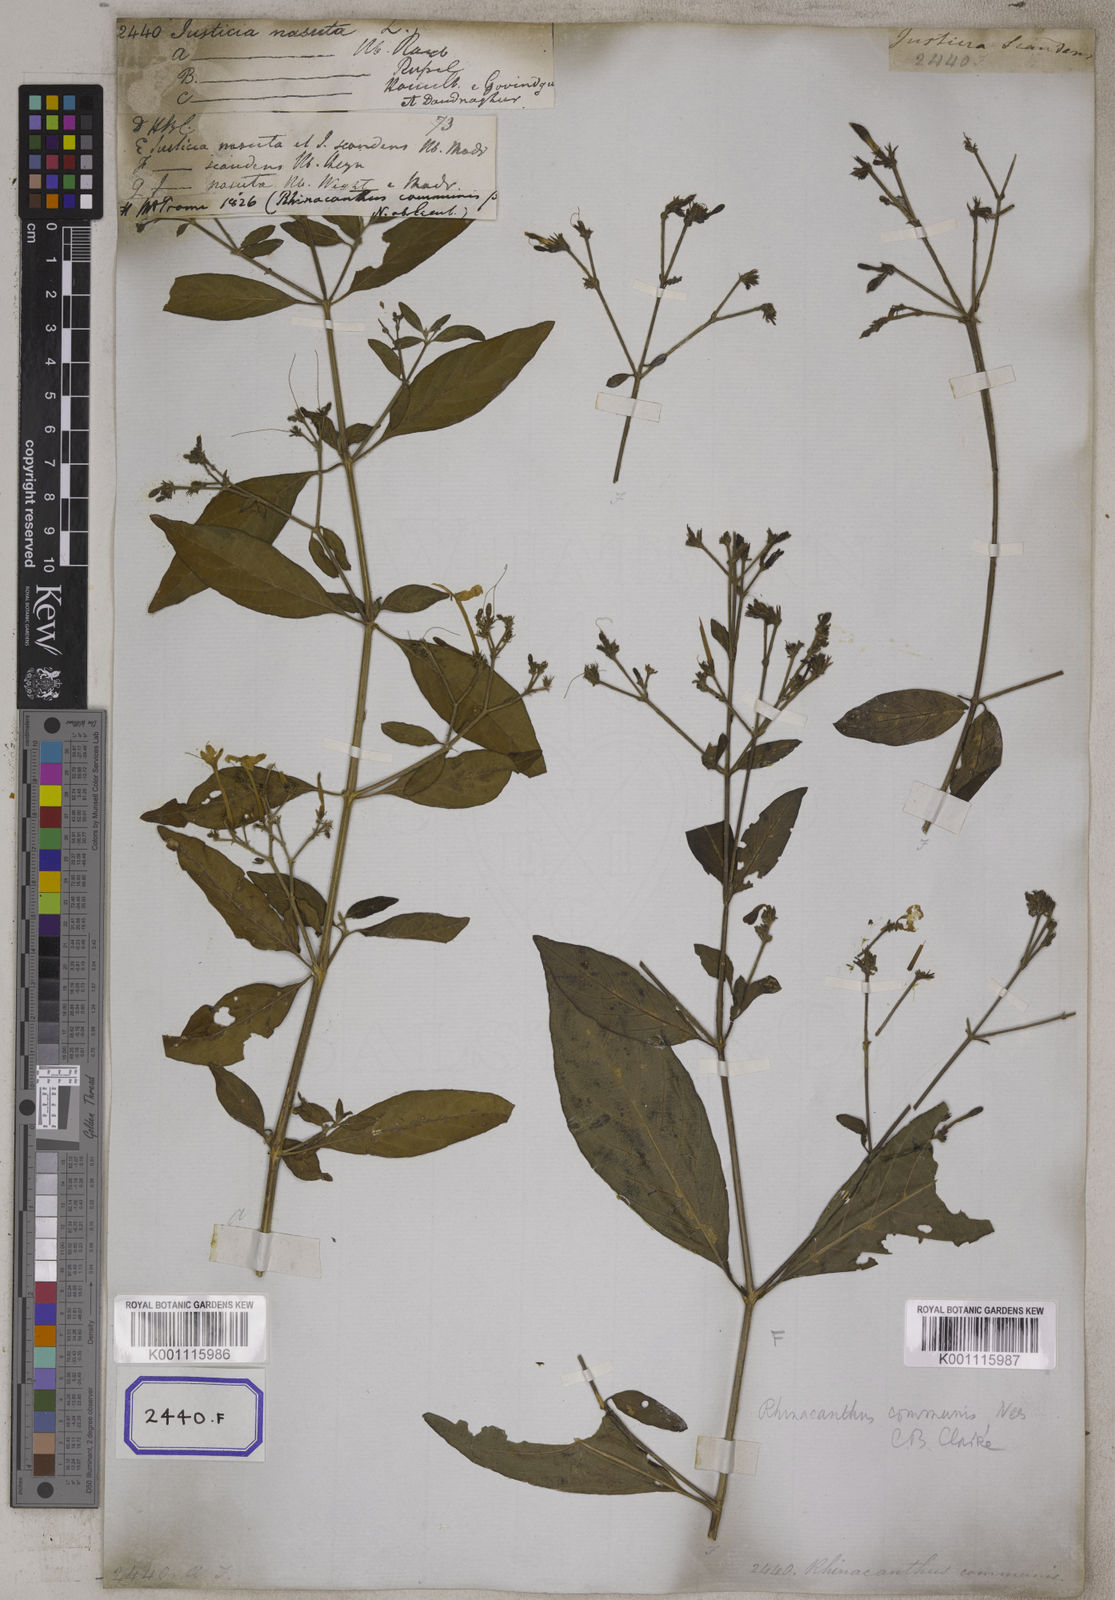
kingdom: Plantae
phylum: Tracheophyta
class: Magnoliopsida
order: Lamiales
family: Acanthaceae
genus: Rhinacanthus
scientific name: Rhinacanthus nasutus
